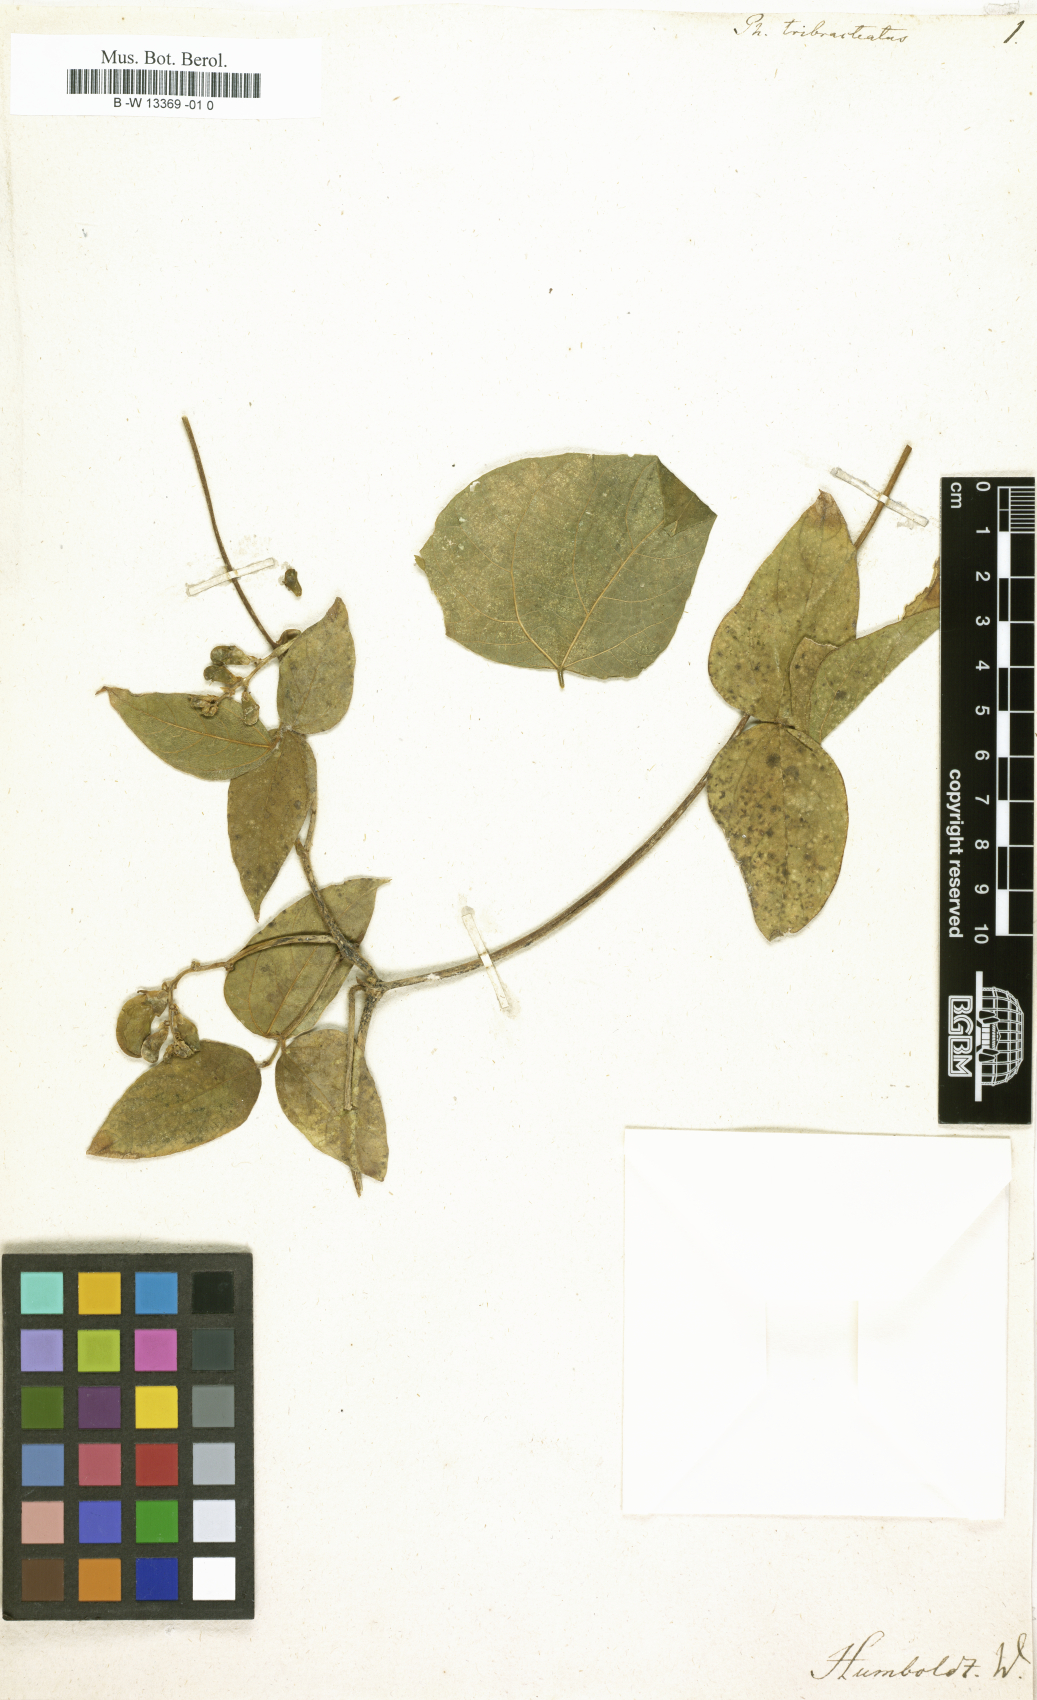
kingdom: Plantae
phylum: Tracheophyta
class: Magnoliopsida
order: Fabales
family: Fabaceae
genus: Phaseolus
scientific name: Phaseolus
